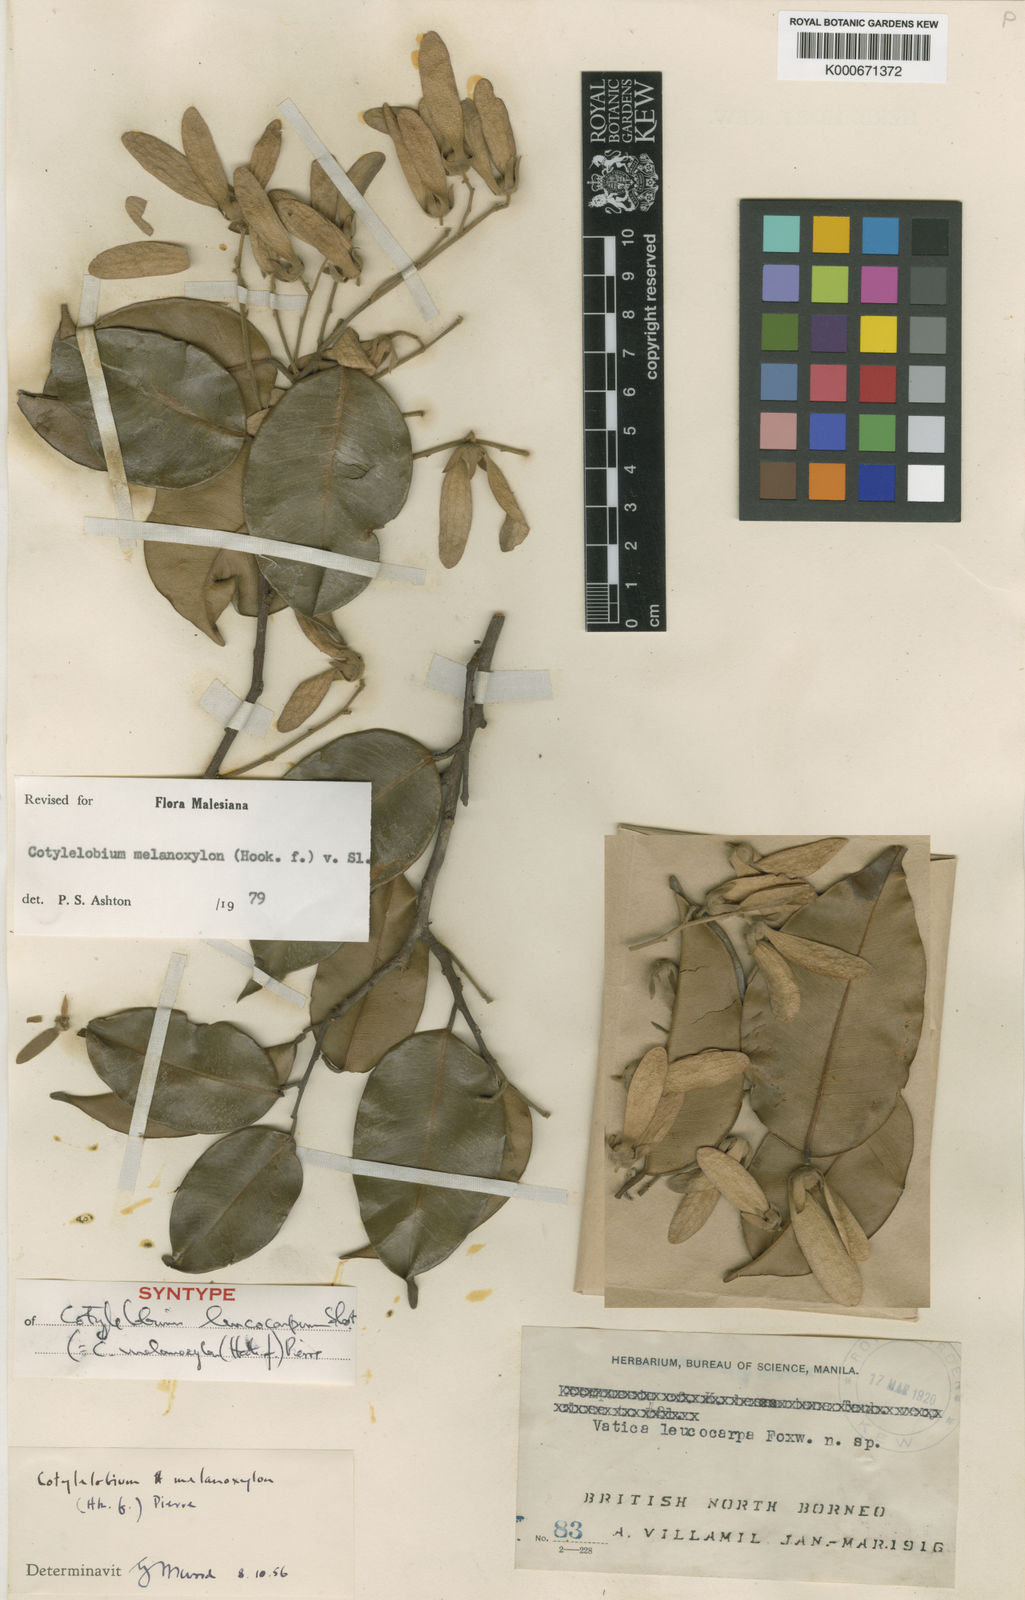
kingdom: Plantae
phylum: Tracheophyta
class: Magnoliopsida
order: Malvales
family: Dipterocarpaceae
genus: Cotylelobium
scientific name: Cotylelobium melanoxylon
